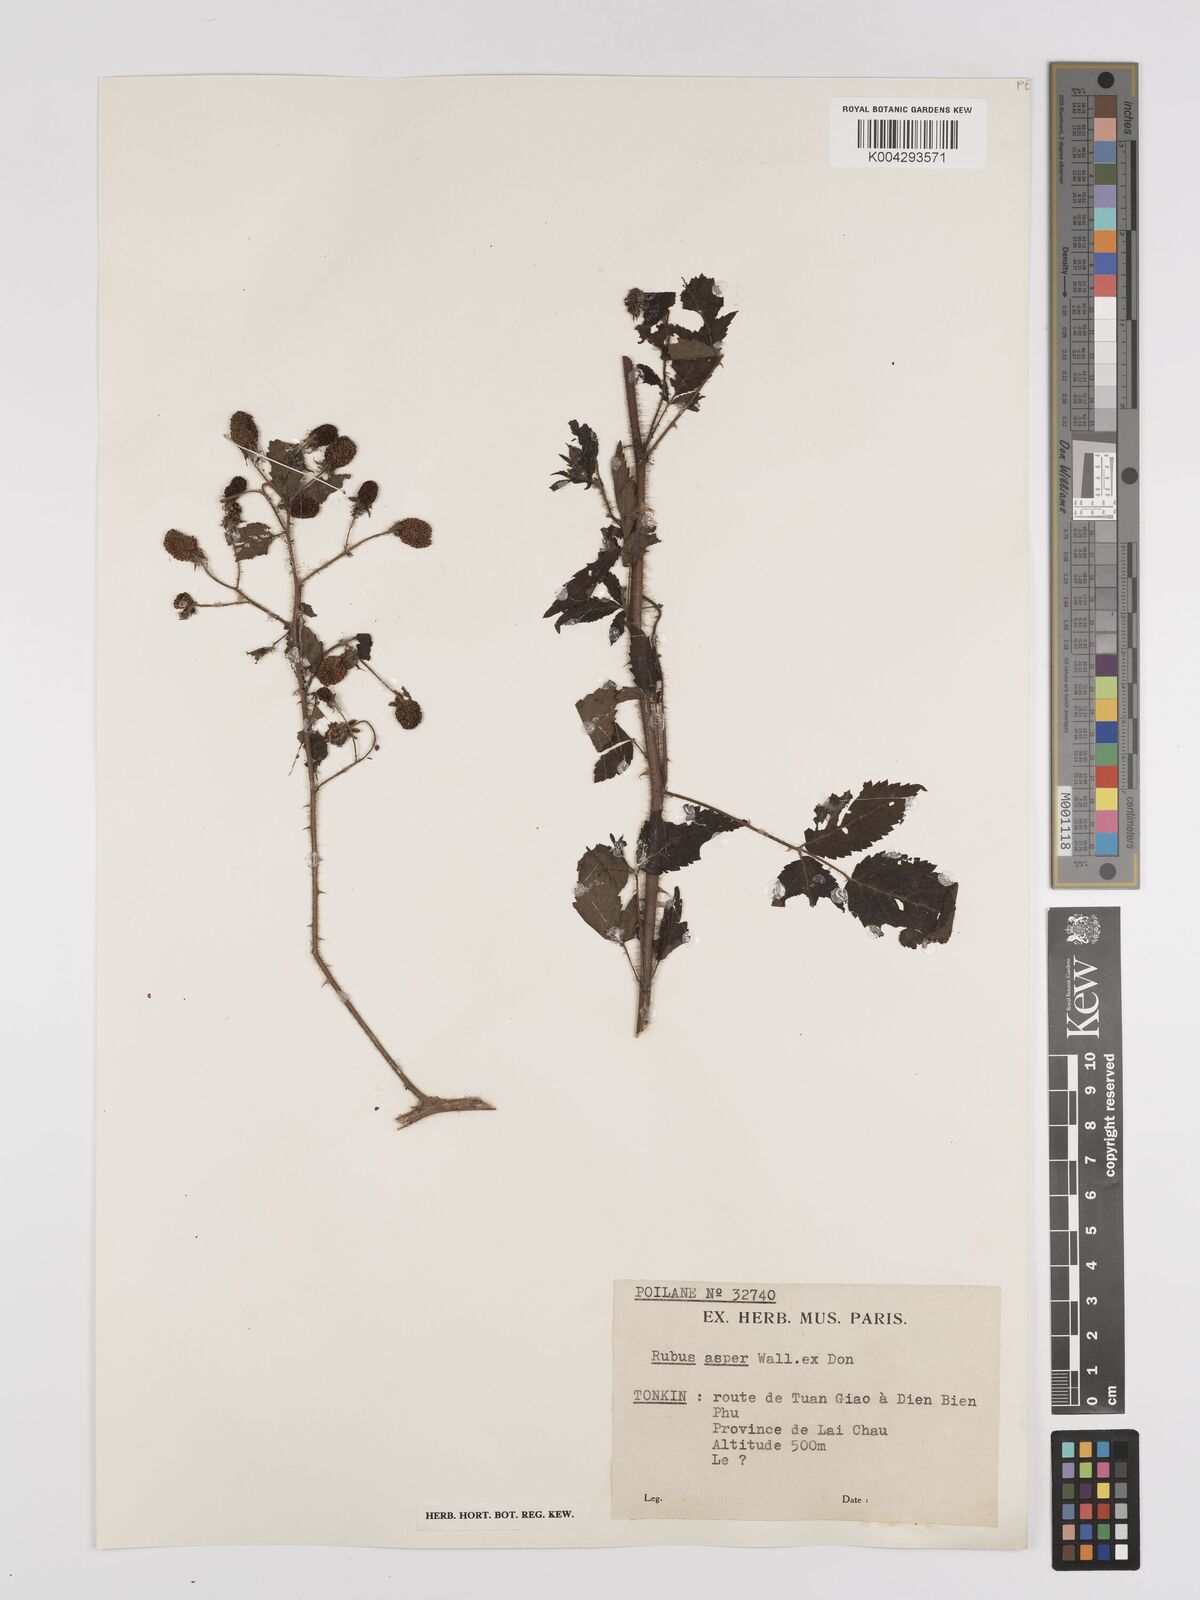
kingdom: Plantae
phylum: Tracheophyta
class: Magnoliopsida
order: Rosales
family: Rosaceae
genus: Rubus
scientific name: Rubus sumatranus
